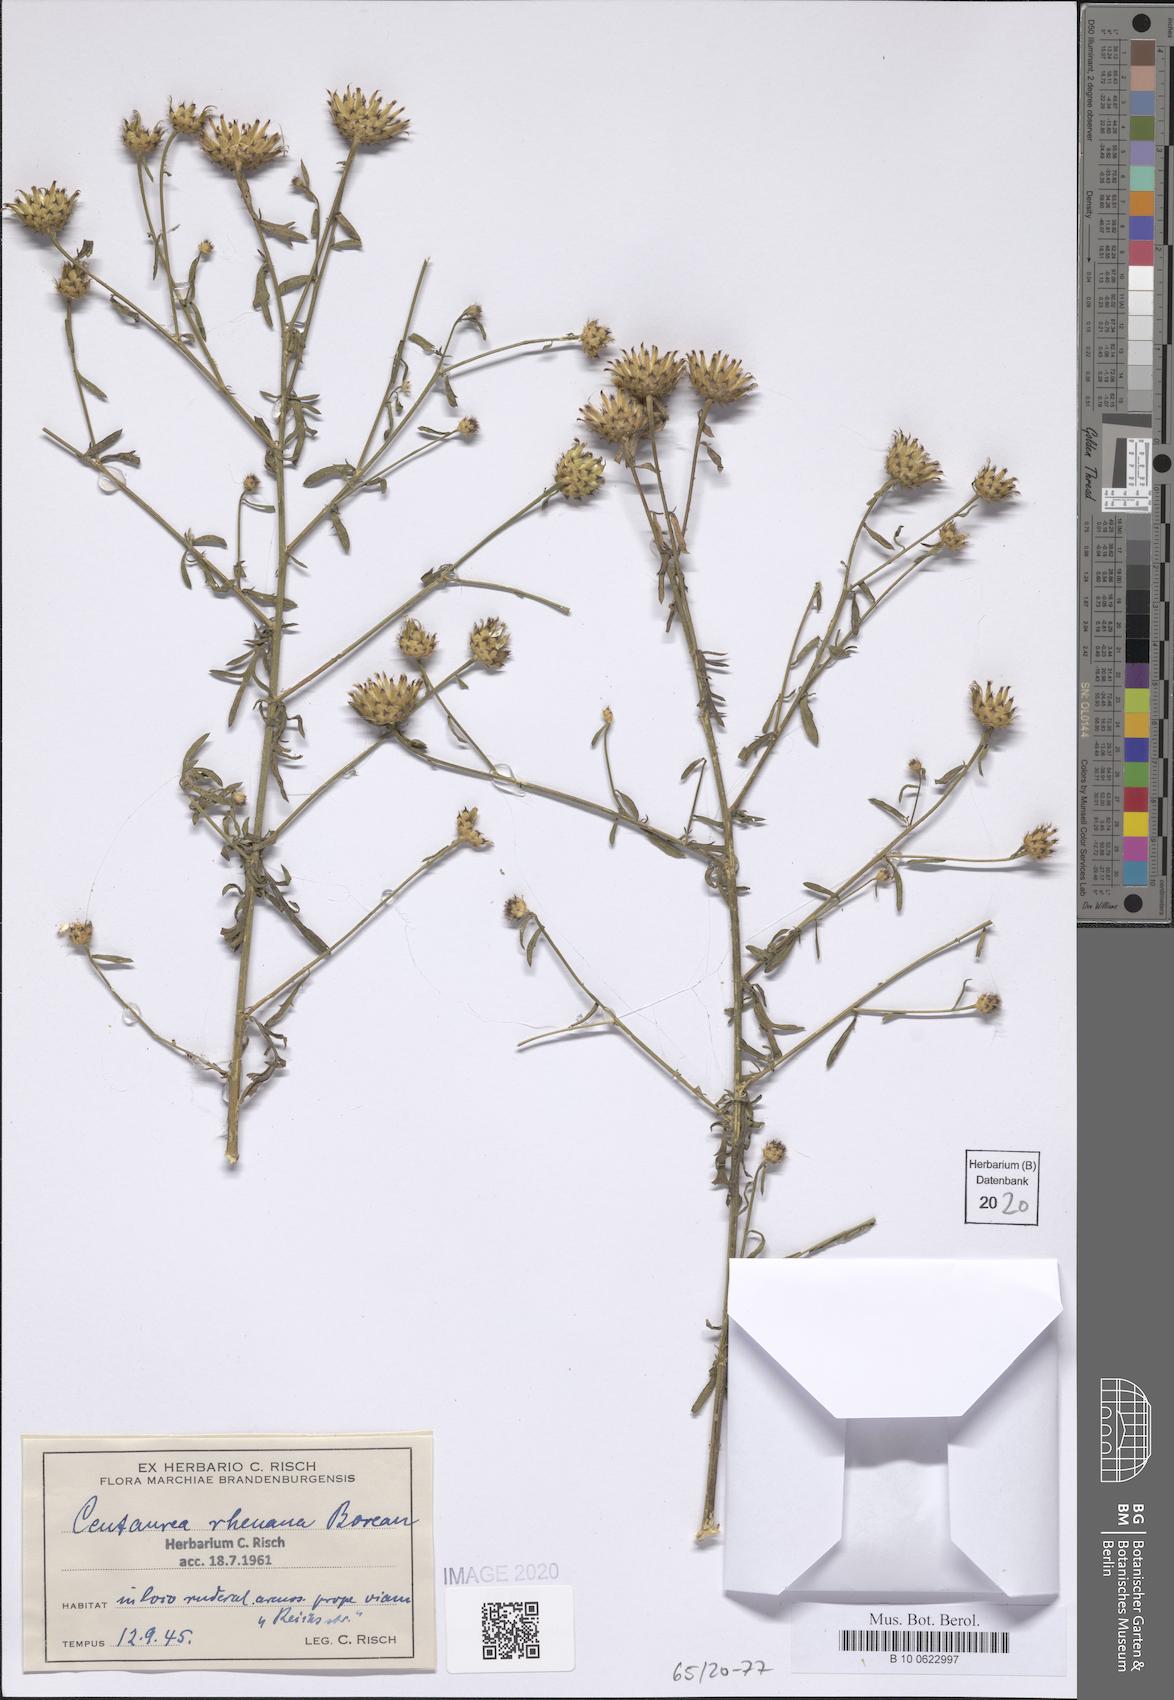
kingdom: Plantae
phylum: Tracheophyta
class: Magnoliopsida
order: Asterales
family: Asteraceae
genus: Centaurea
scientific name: Centaurea stoebe
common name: Spotted knapweed
